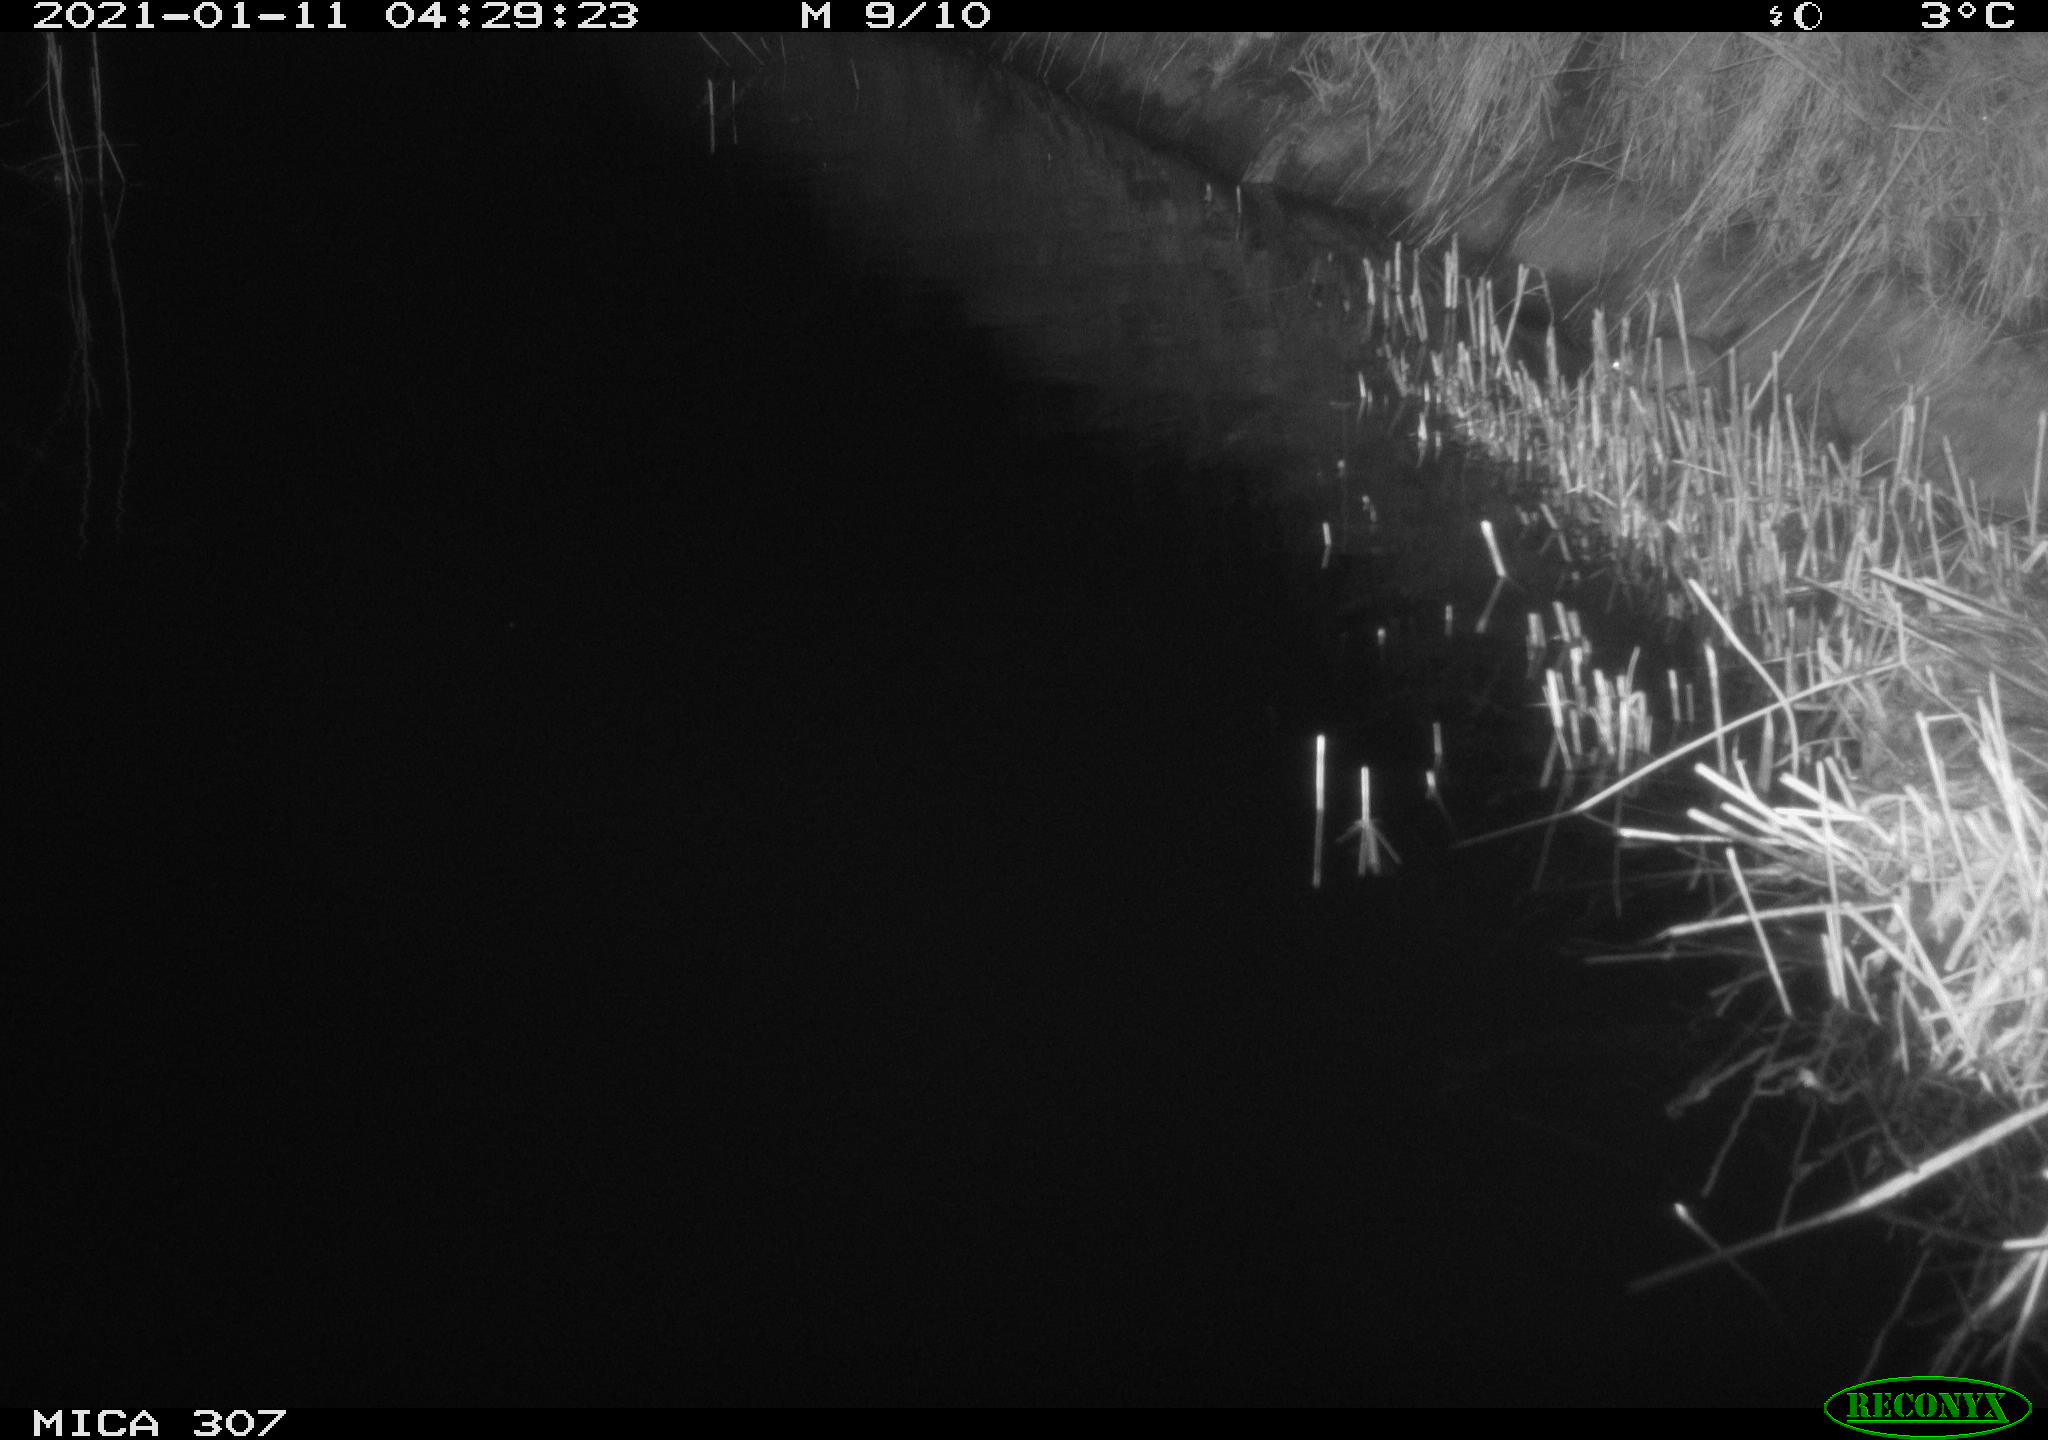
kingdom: Animalia
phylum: Chordata
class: Mammalia
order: Rodentia
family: Muridae
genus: Rattus
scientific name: Rattus norvegicus
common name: Brown rat
